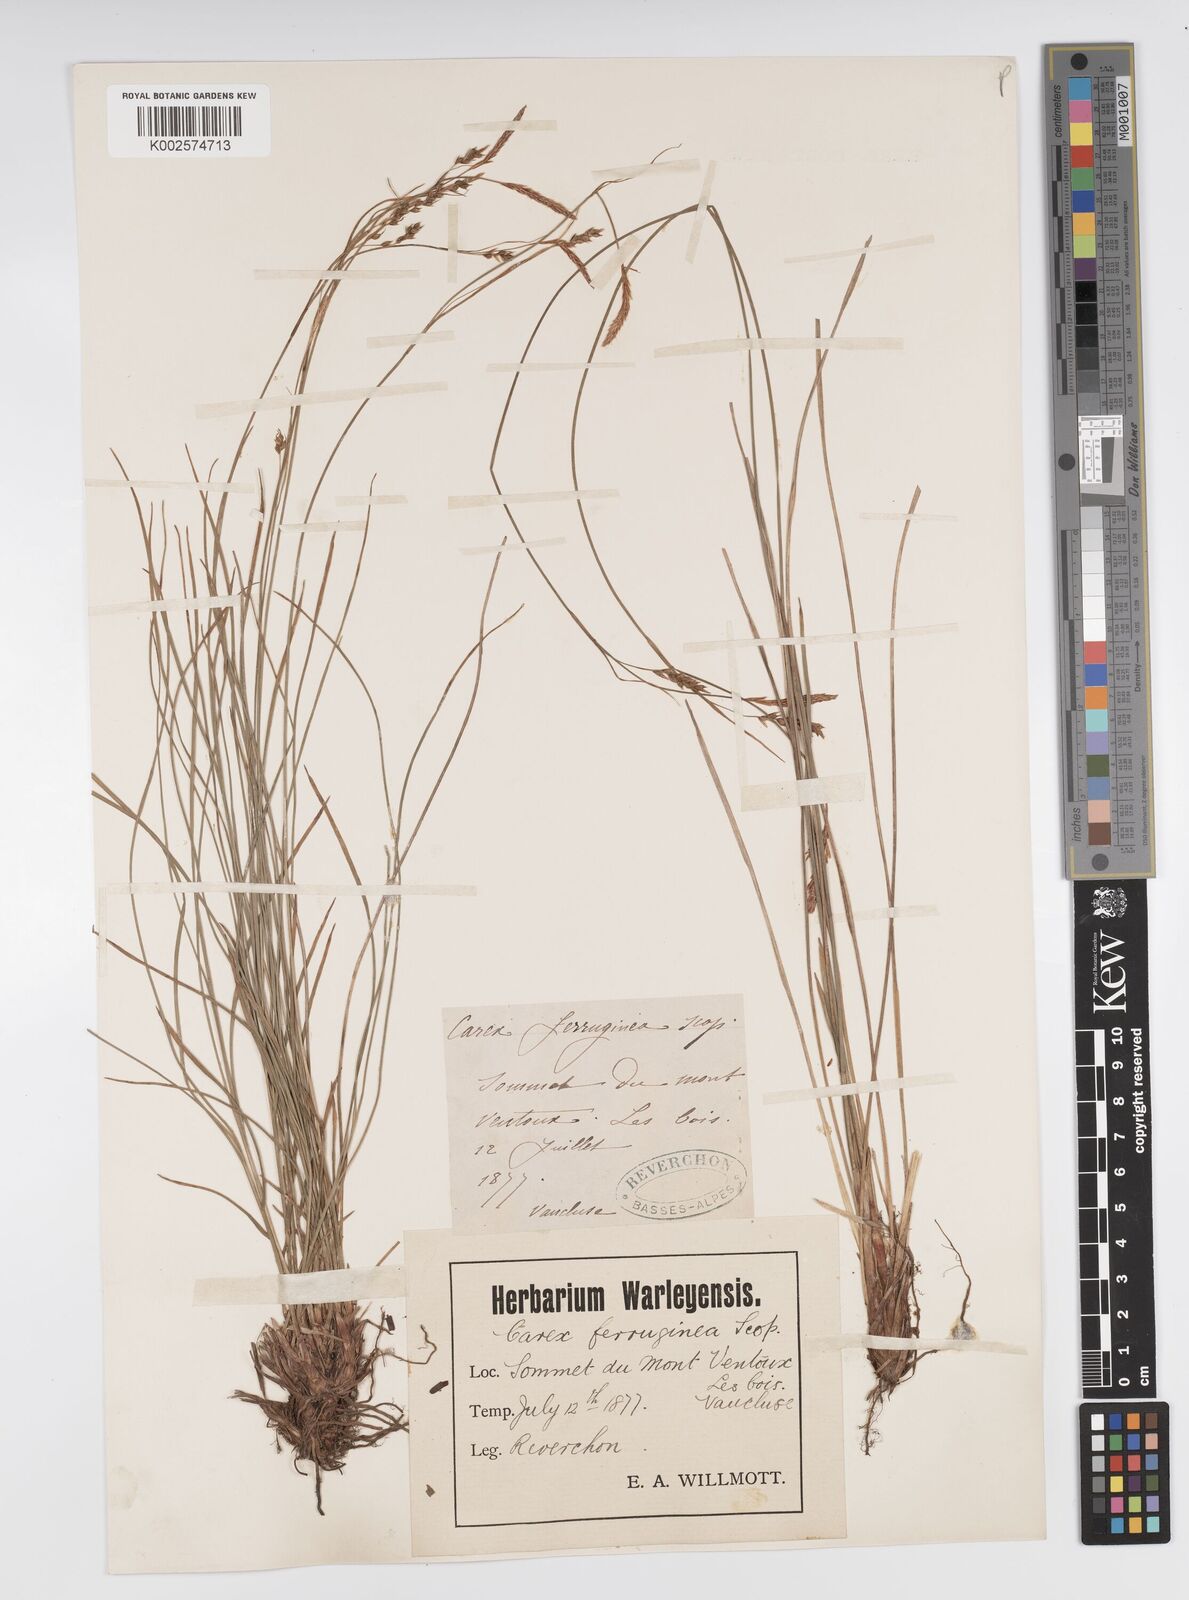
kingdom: Plantae
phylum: Tracheophyta
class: Liliopsida
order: Poales
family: Cyperaceae
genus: Carex
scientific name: Carex ferruginea
